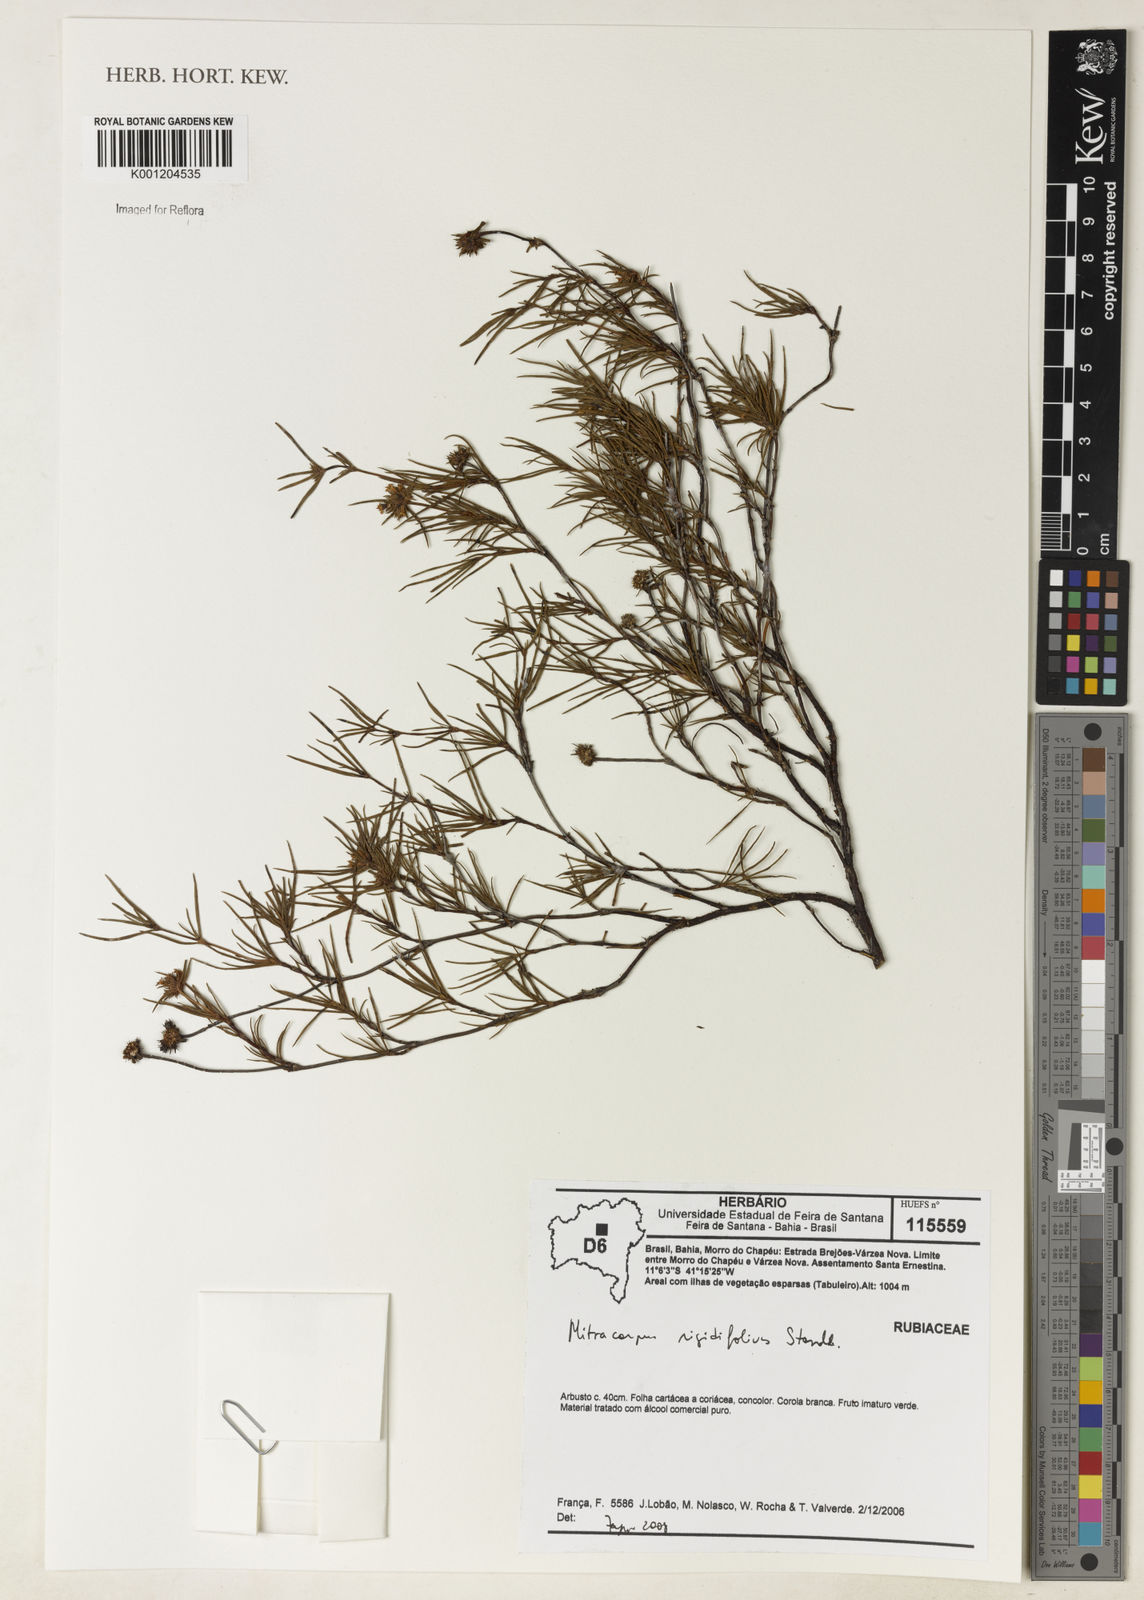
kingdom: Plantae
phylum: Tracheophyta
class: Magnoliopsida
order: Gentianales
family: Rubiaceae
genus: Mitracarpus
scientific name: Mitracarpus rigidifolius
